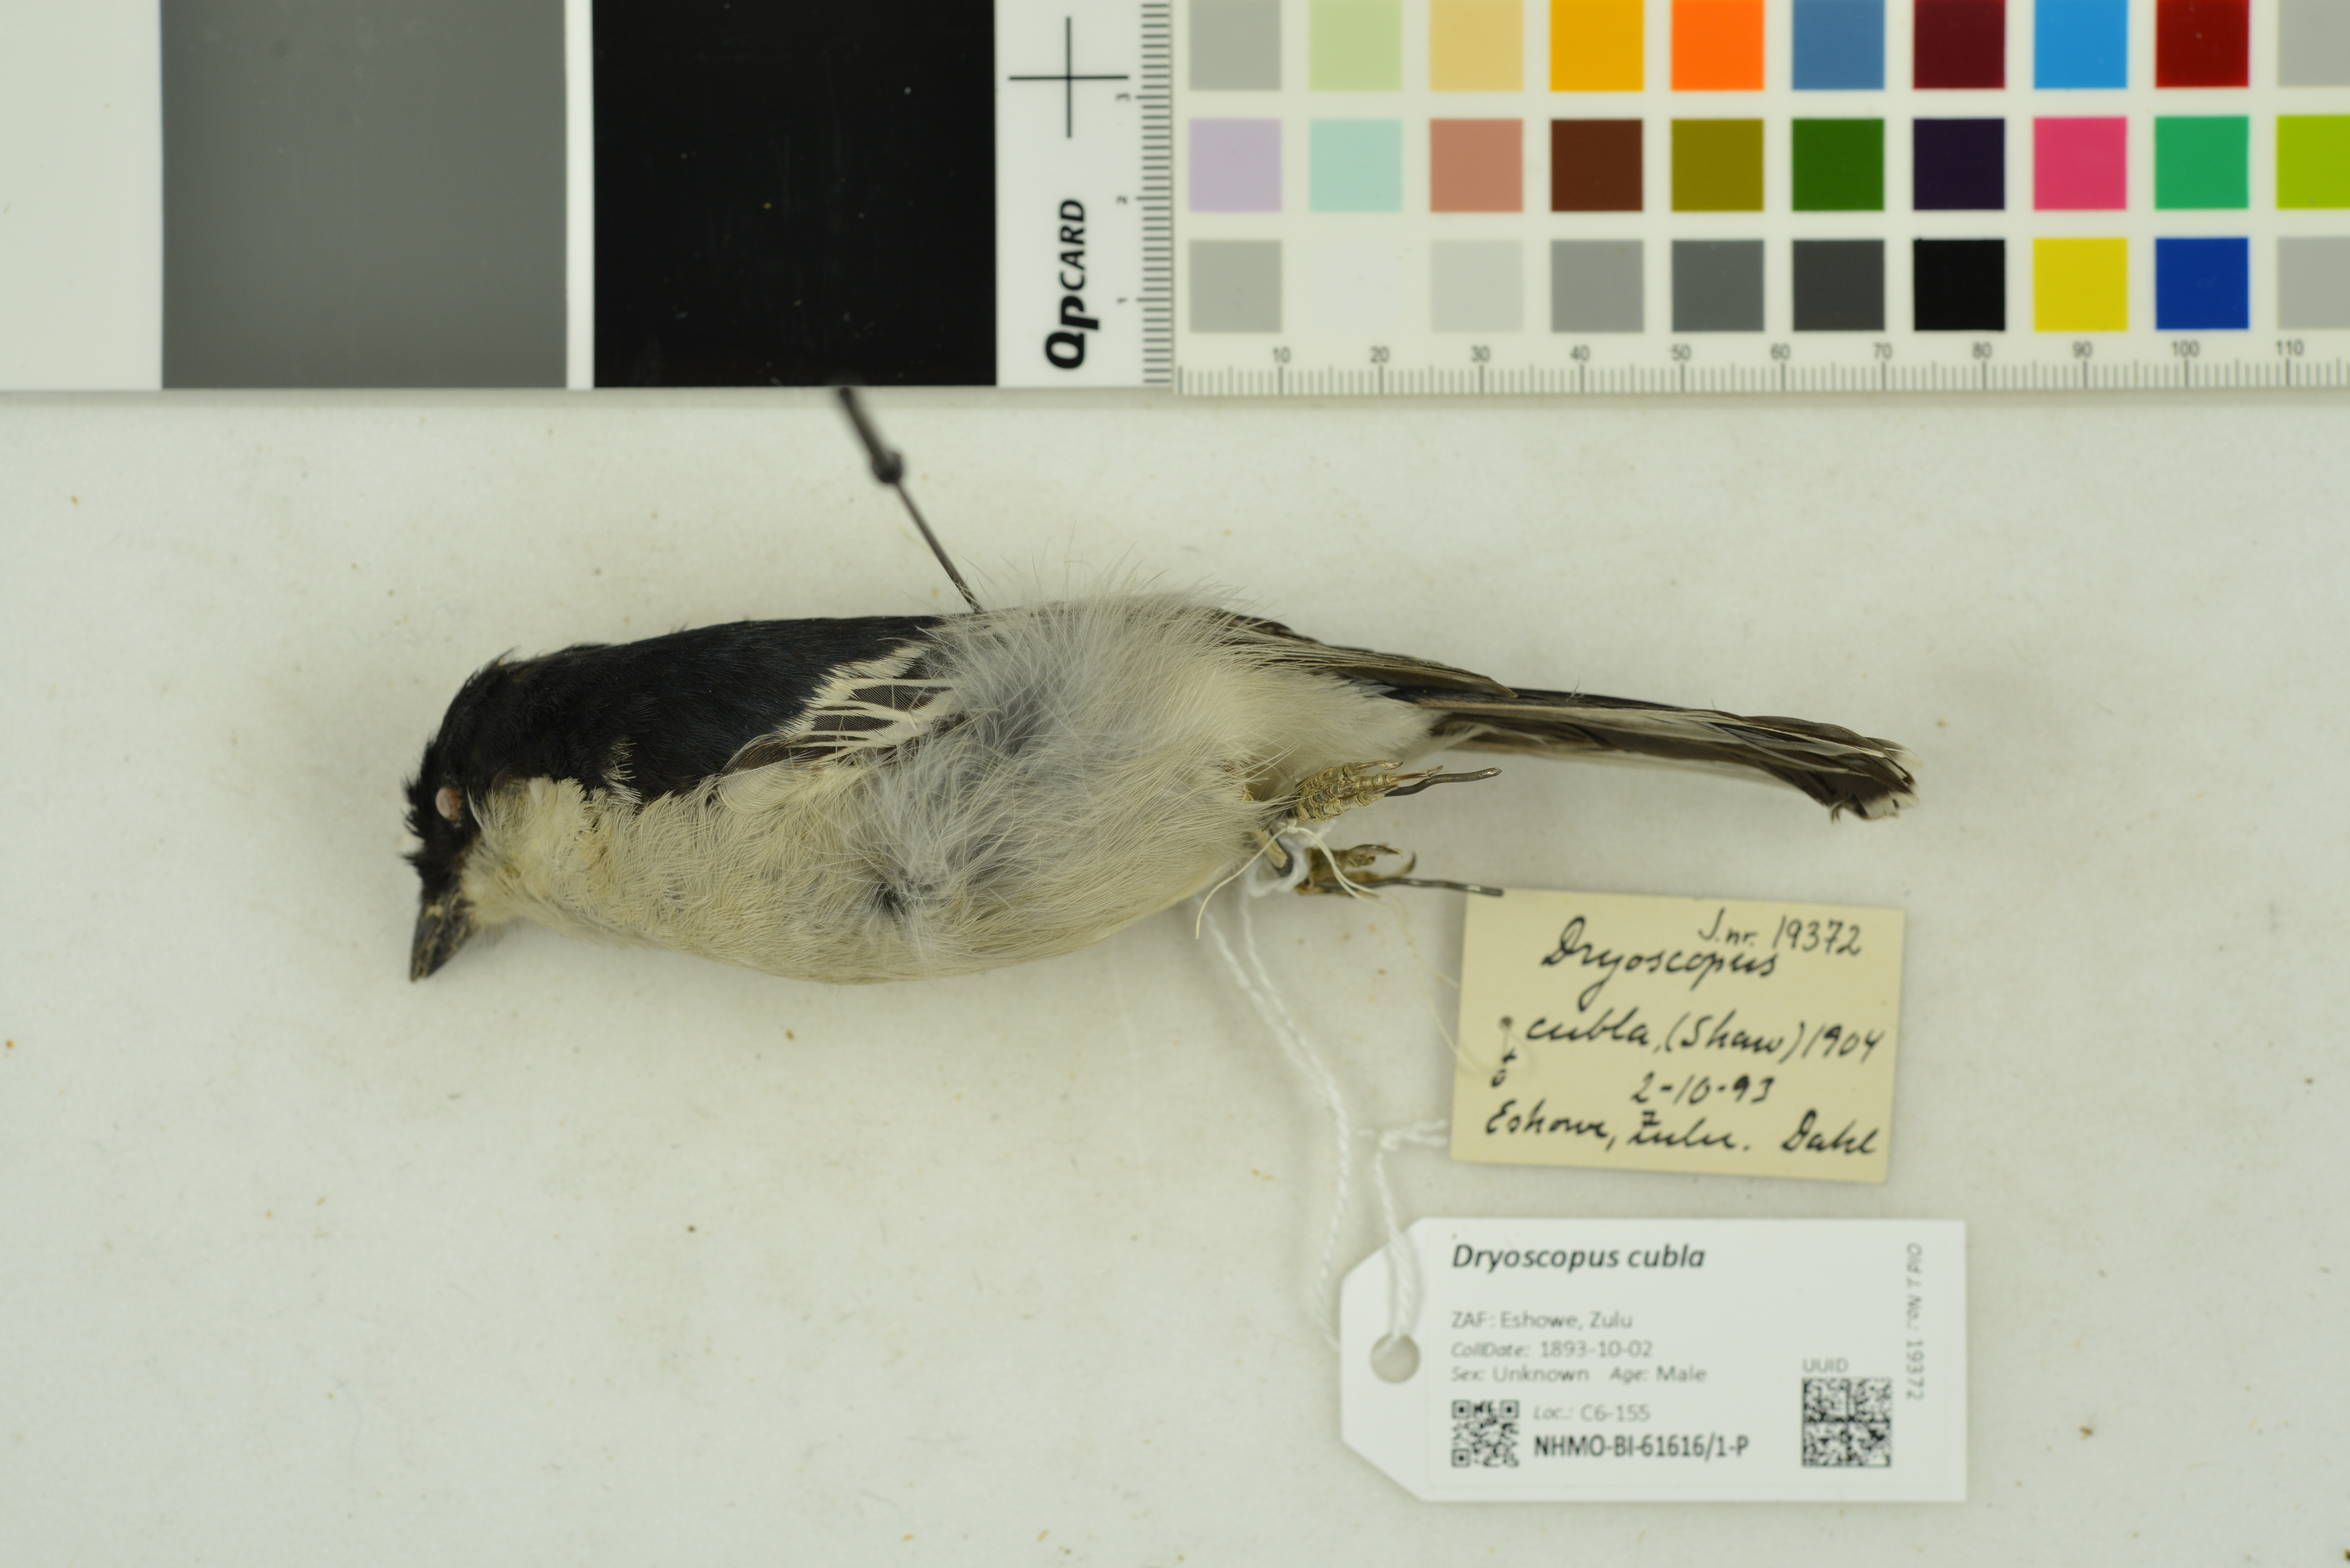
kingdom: Animalia
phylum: Chordata
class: Aves
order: Passeriformes
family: Malaconotidae
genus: Dryoscopus
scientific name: Dryoscopus cubla
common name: Black-backed puffback
